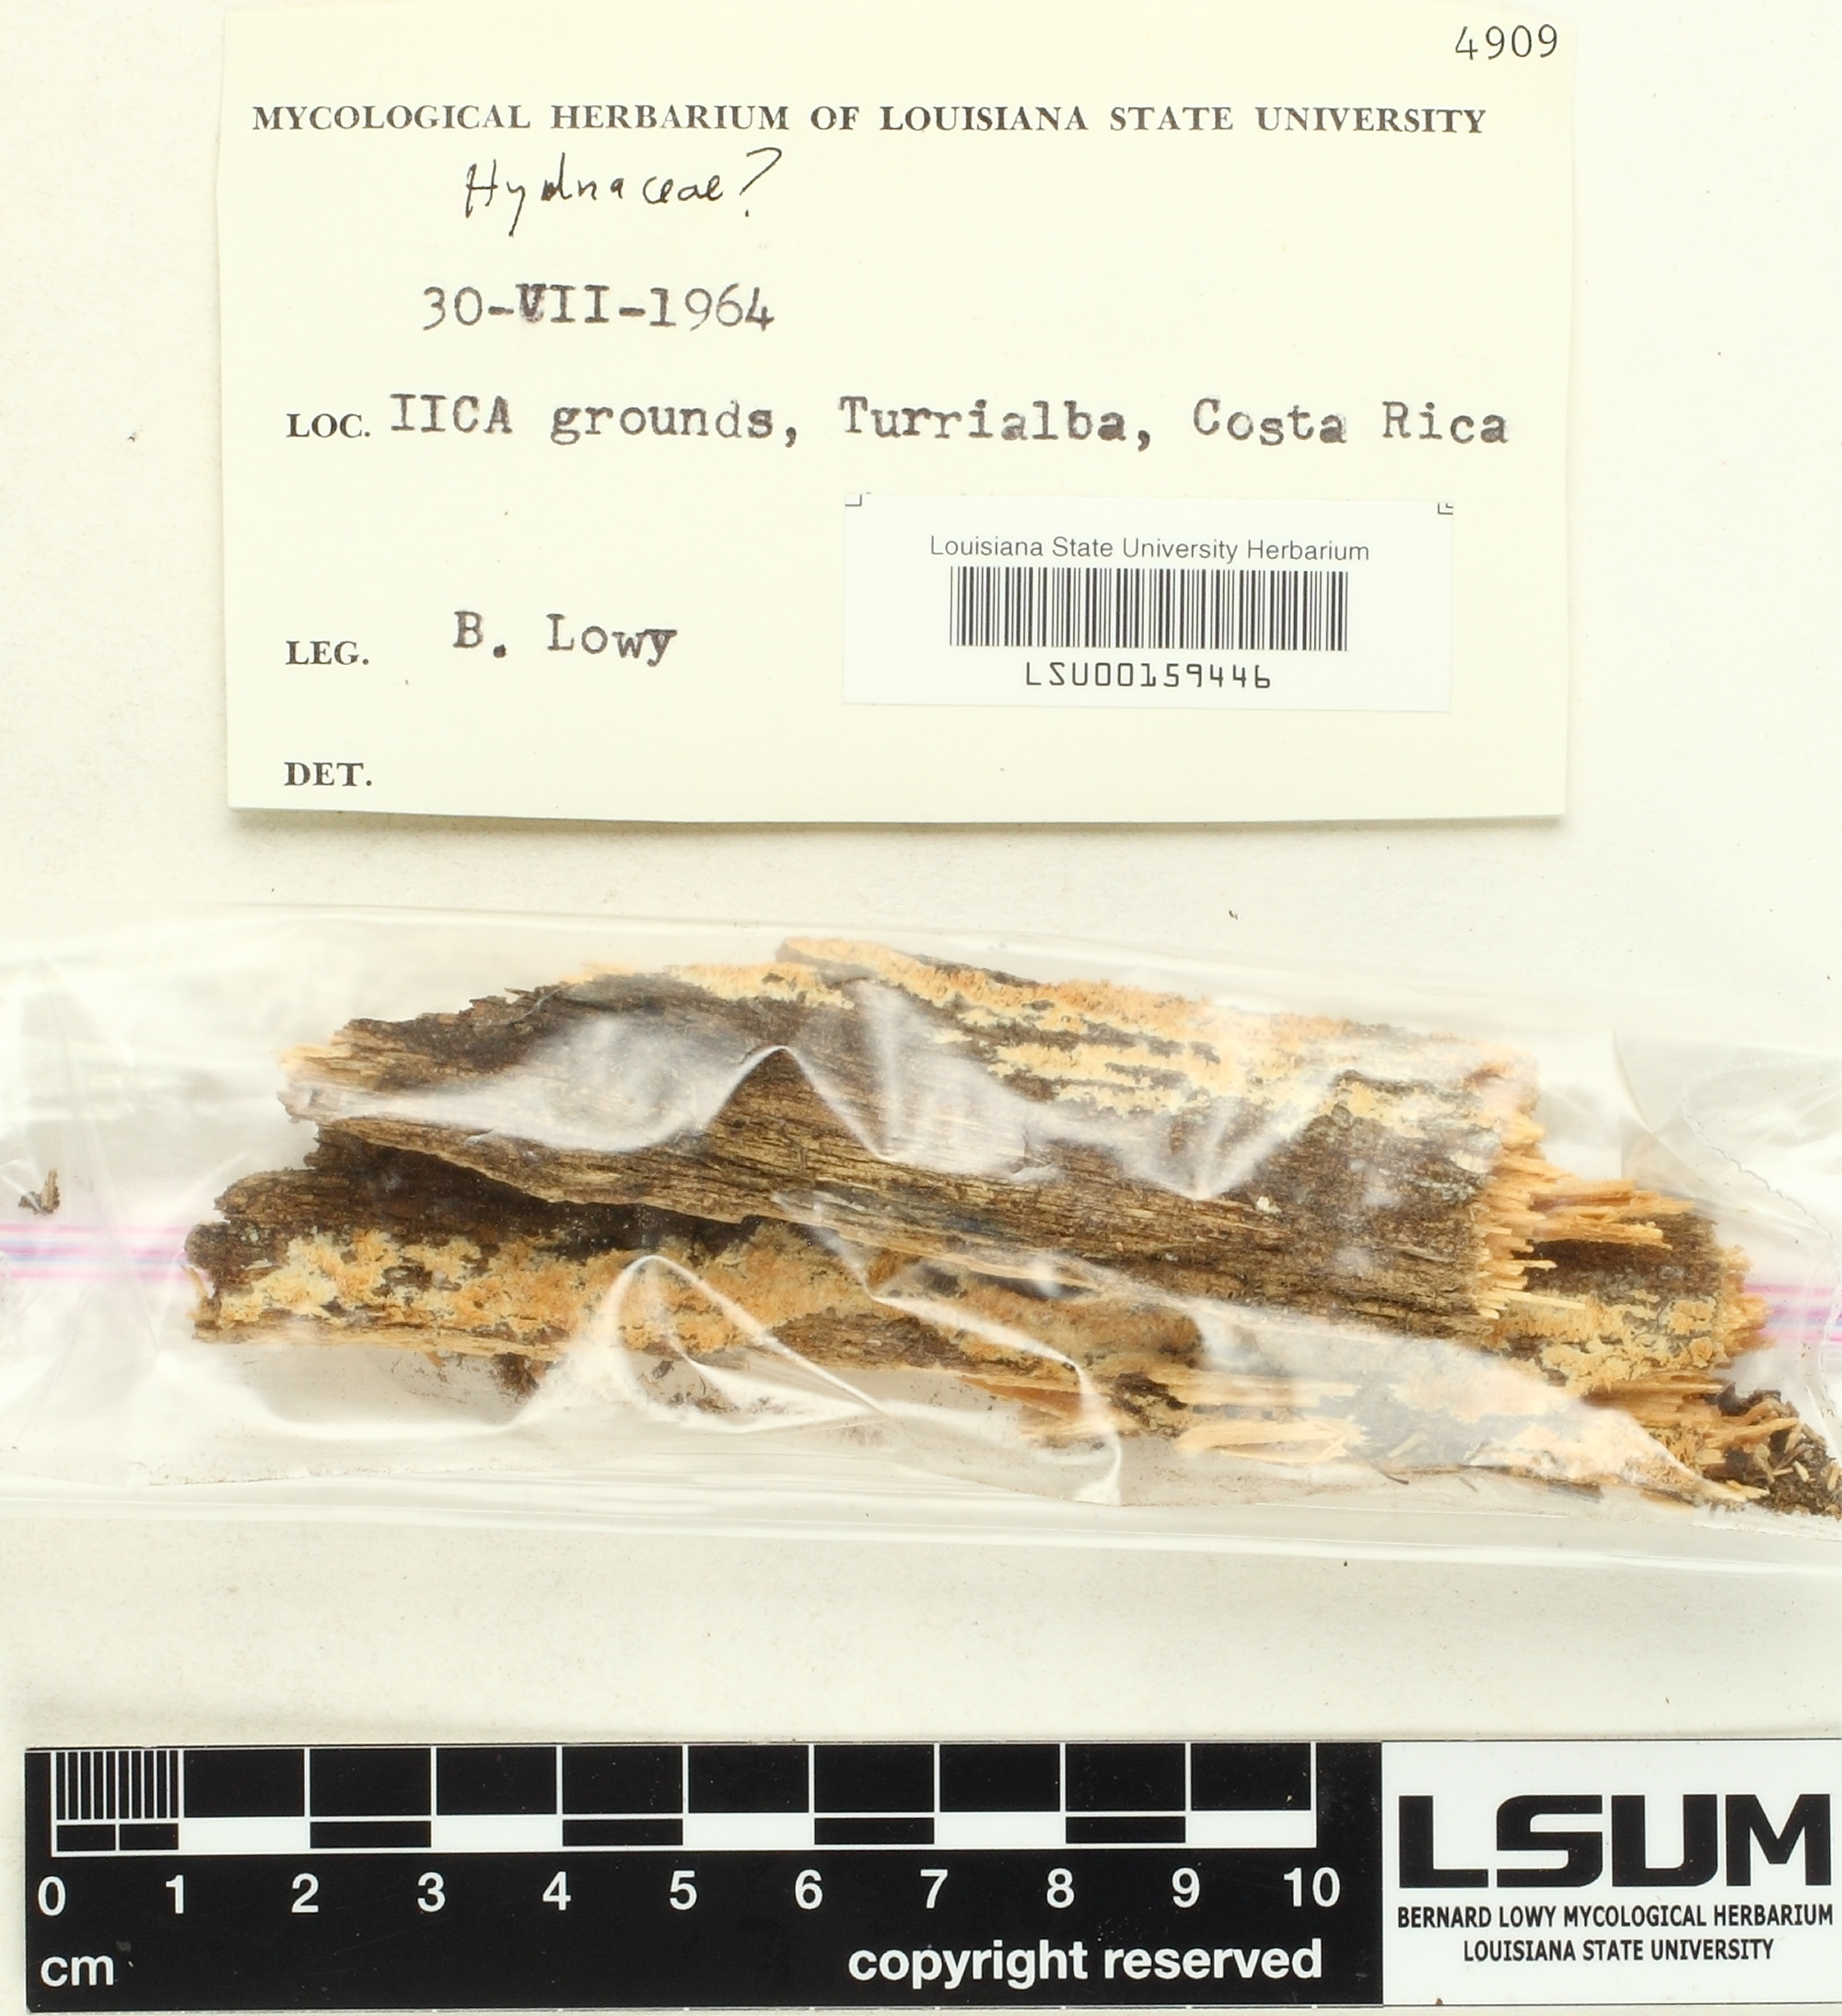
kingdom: Fungi
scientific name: Fungi
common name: Fungi
